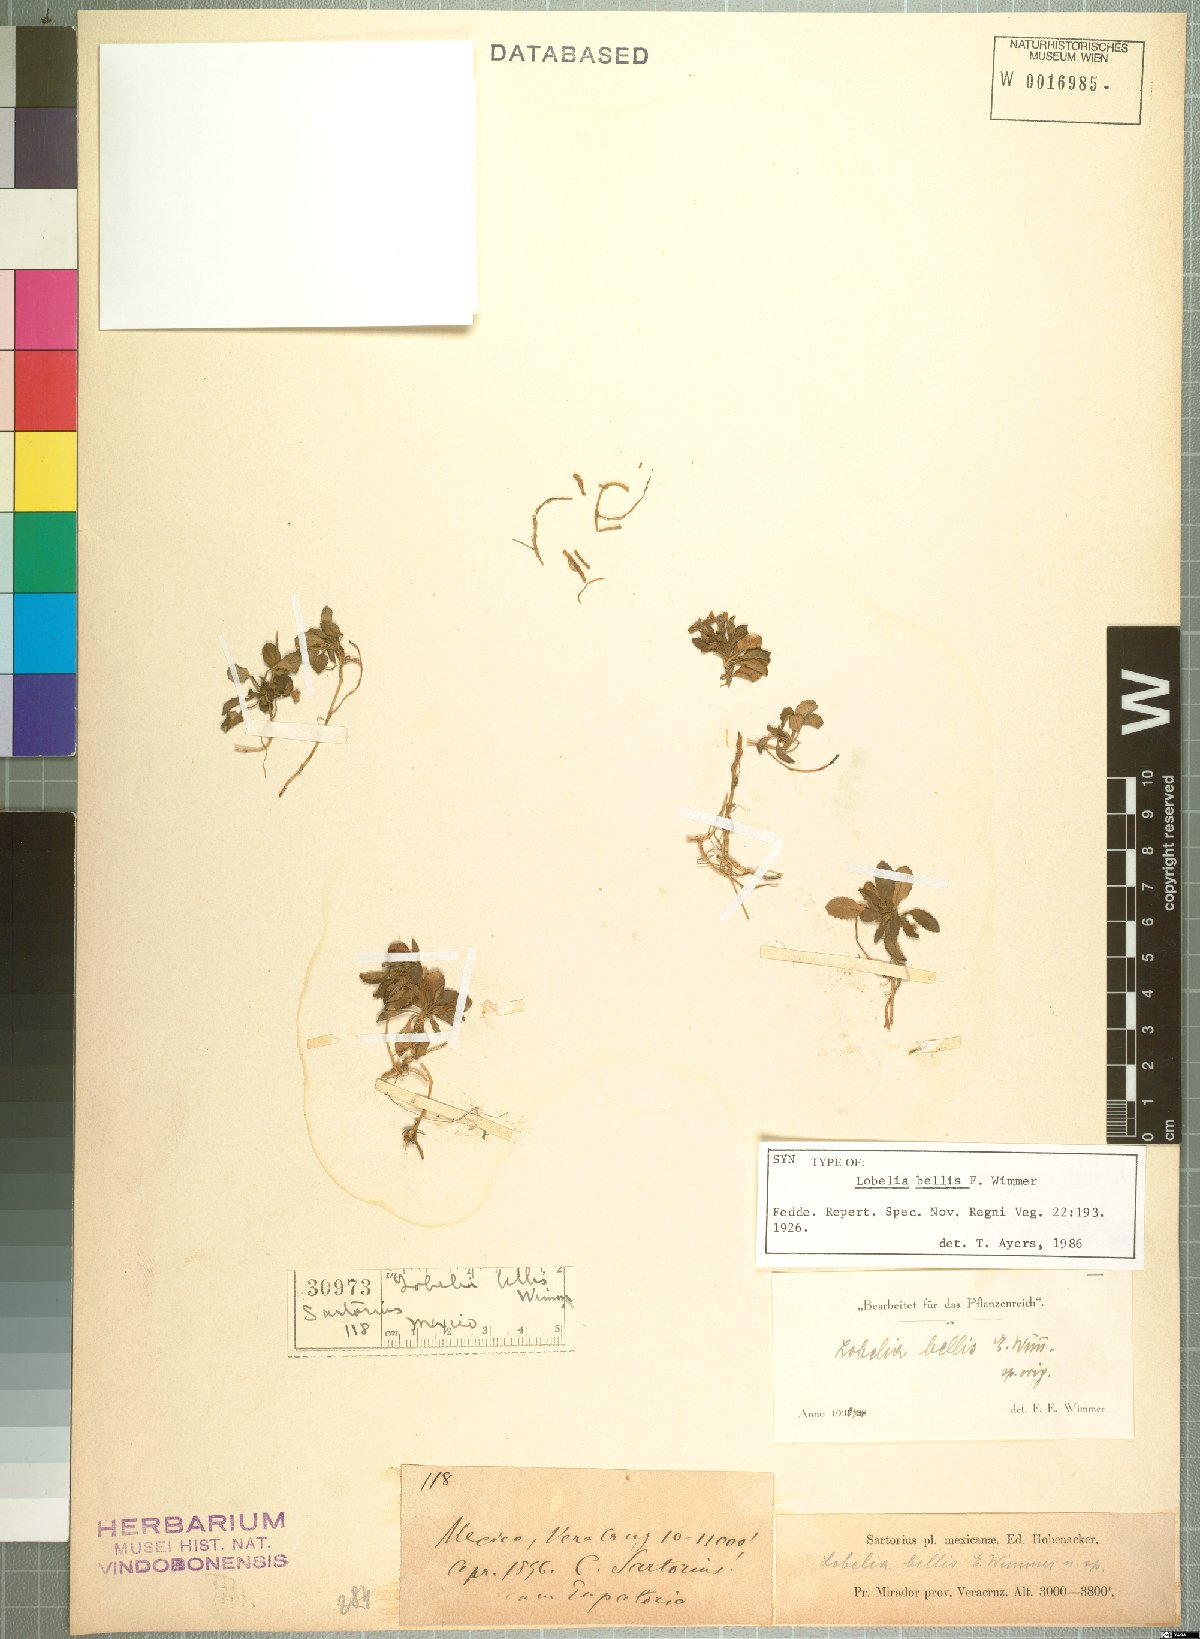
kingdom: Plantae
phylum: Tracheophyta
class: Magnoliopsida
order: Asterales
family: Campanulaceae
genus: Lobelia
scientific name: Lobelia nana
